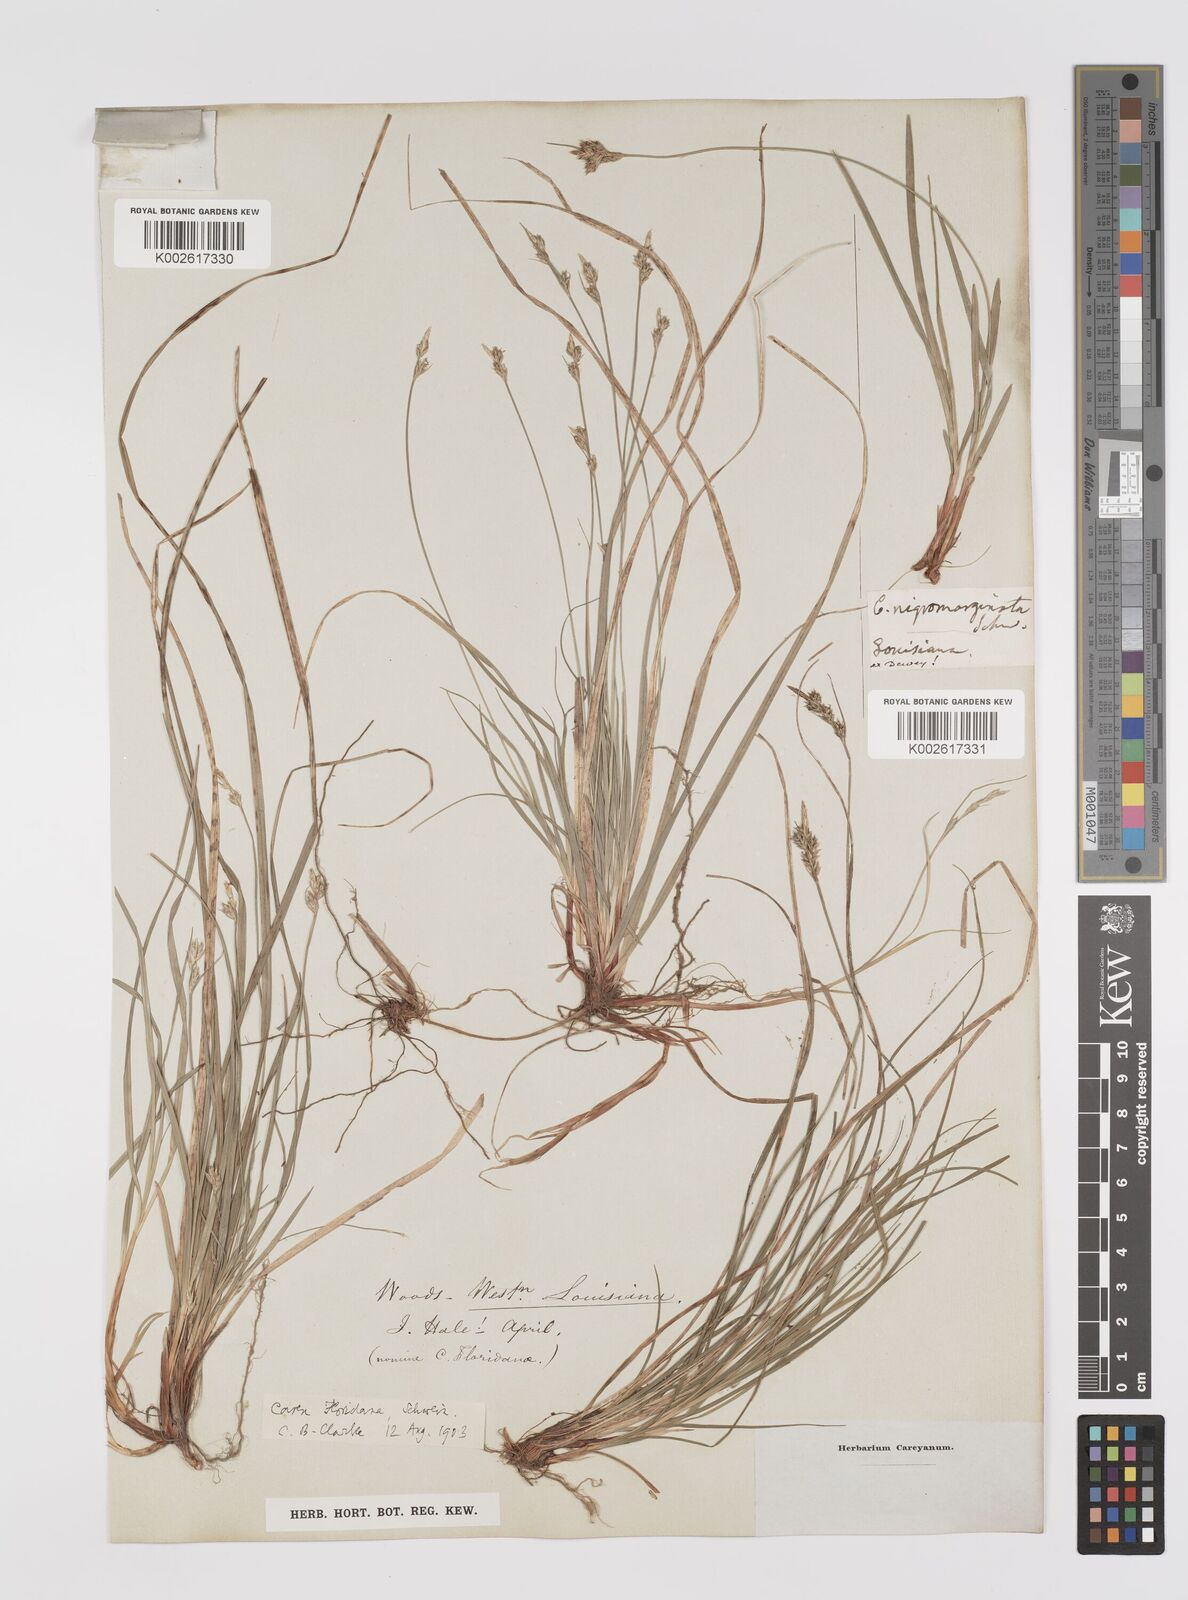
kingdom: Plantae
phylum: Tracheophyta
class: Liliopsida
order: Poales
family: Cyperaceae
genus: Carex
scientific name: Carex floridana
